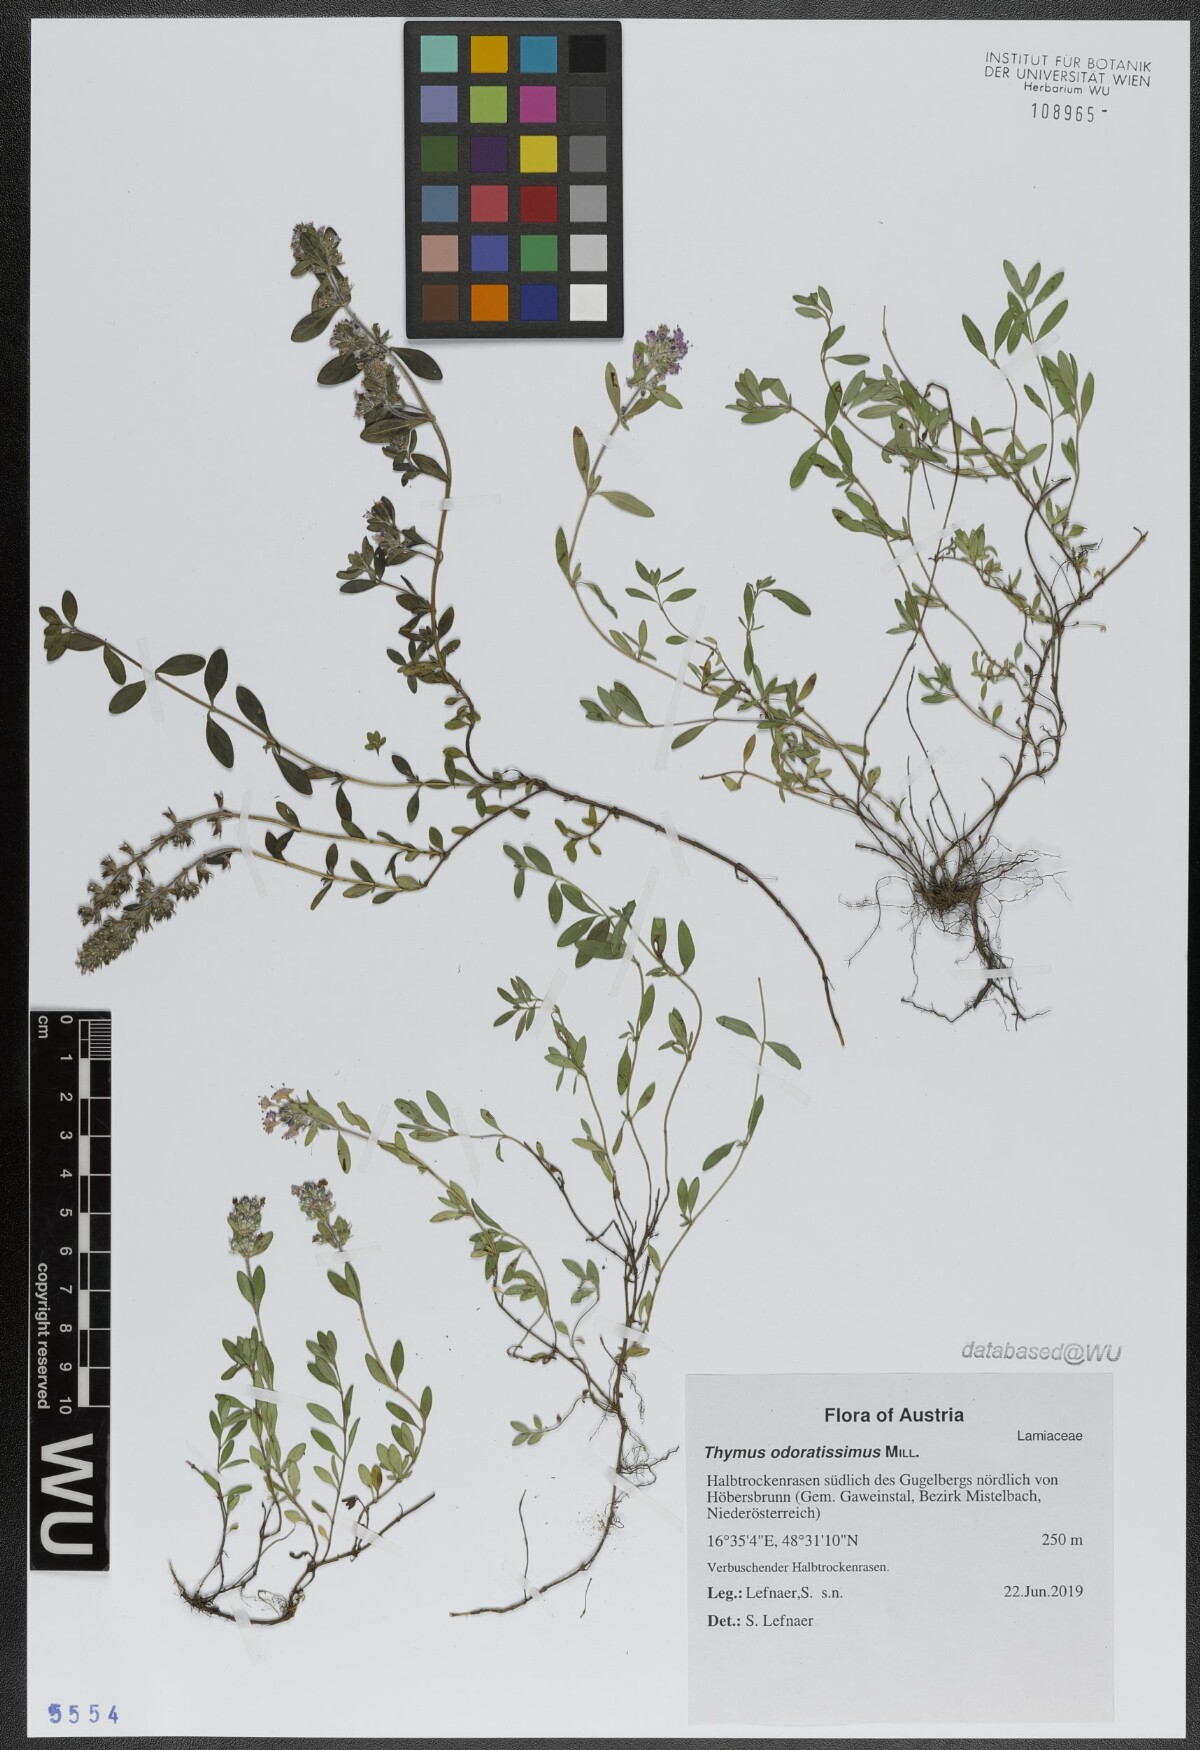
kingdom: Plantae
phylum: Tracheophyta
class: Magnoliopsida
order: Lamiales
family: Lamiaceae
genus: Thymus
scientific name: Thymus odoratissimus
